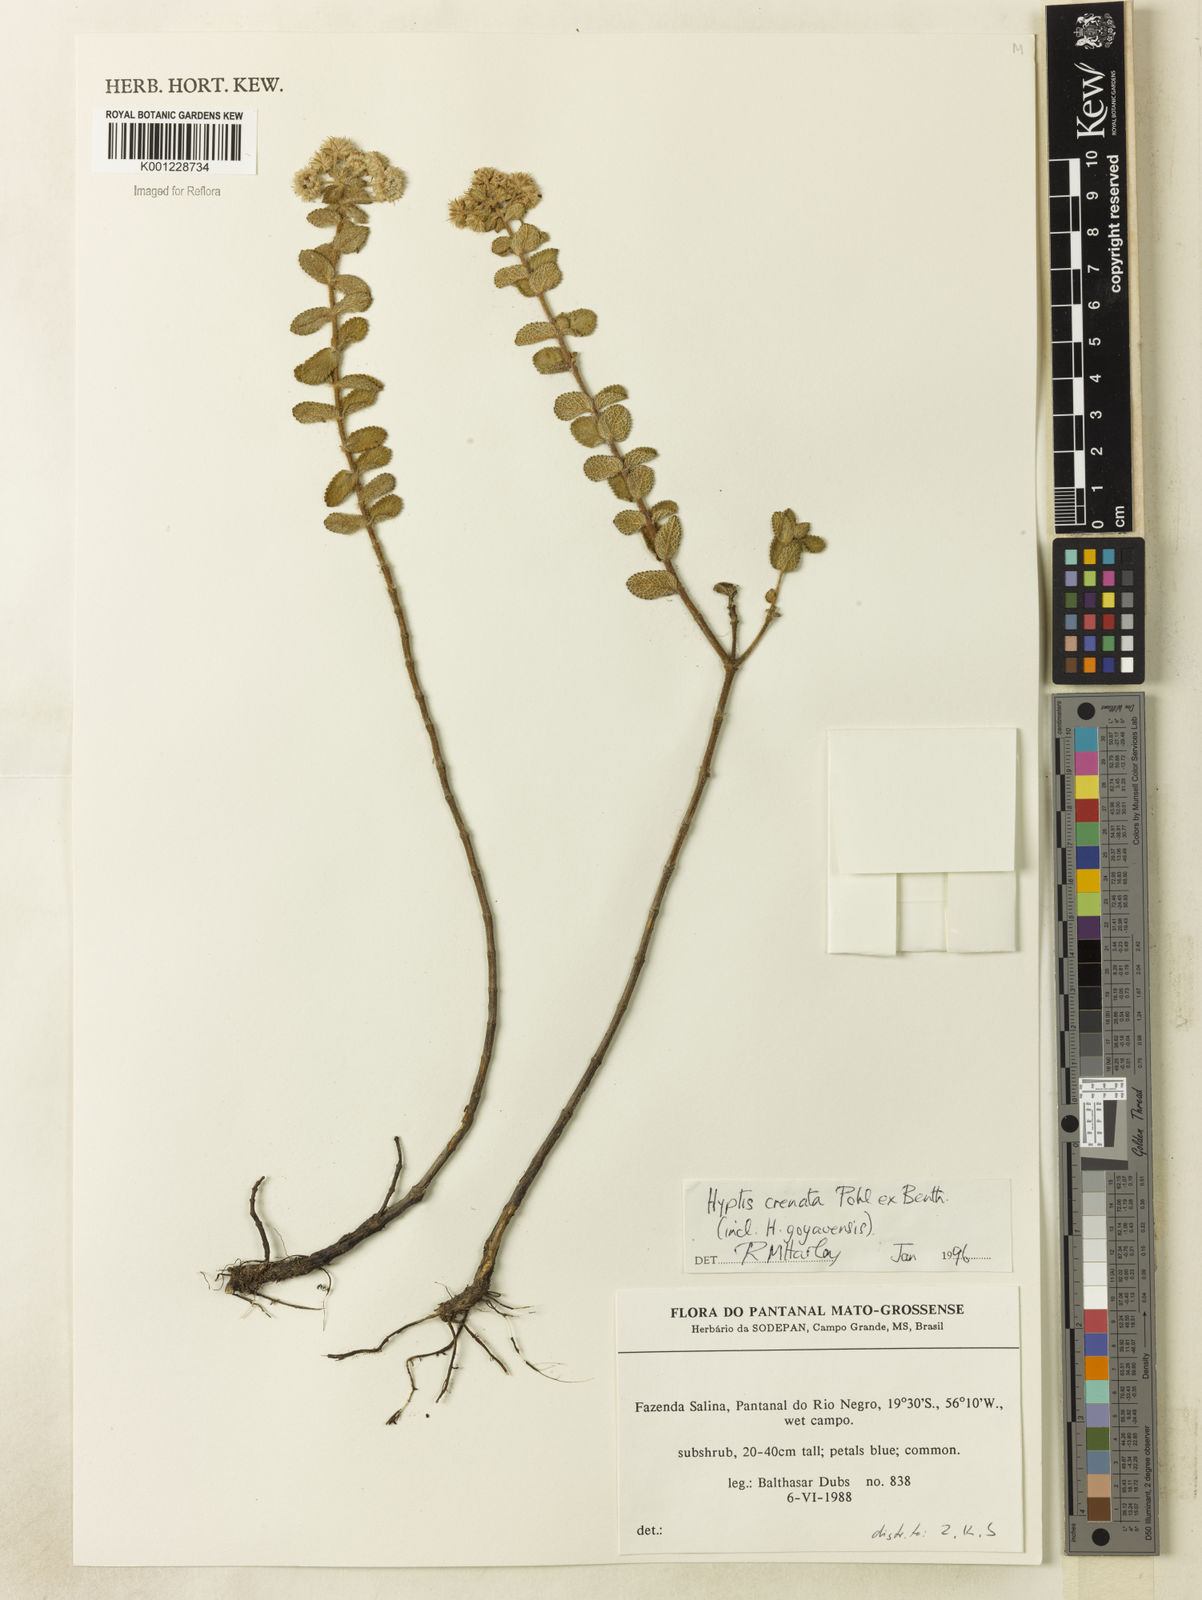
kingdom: Plantae
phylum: Tracheophyta
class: Magnoliopsida
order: Lamiales
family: Lamiaceae
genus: Hyptis
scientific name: Hyptis crenata
